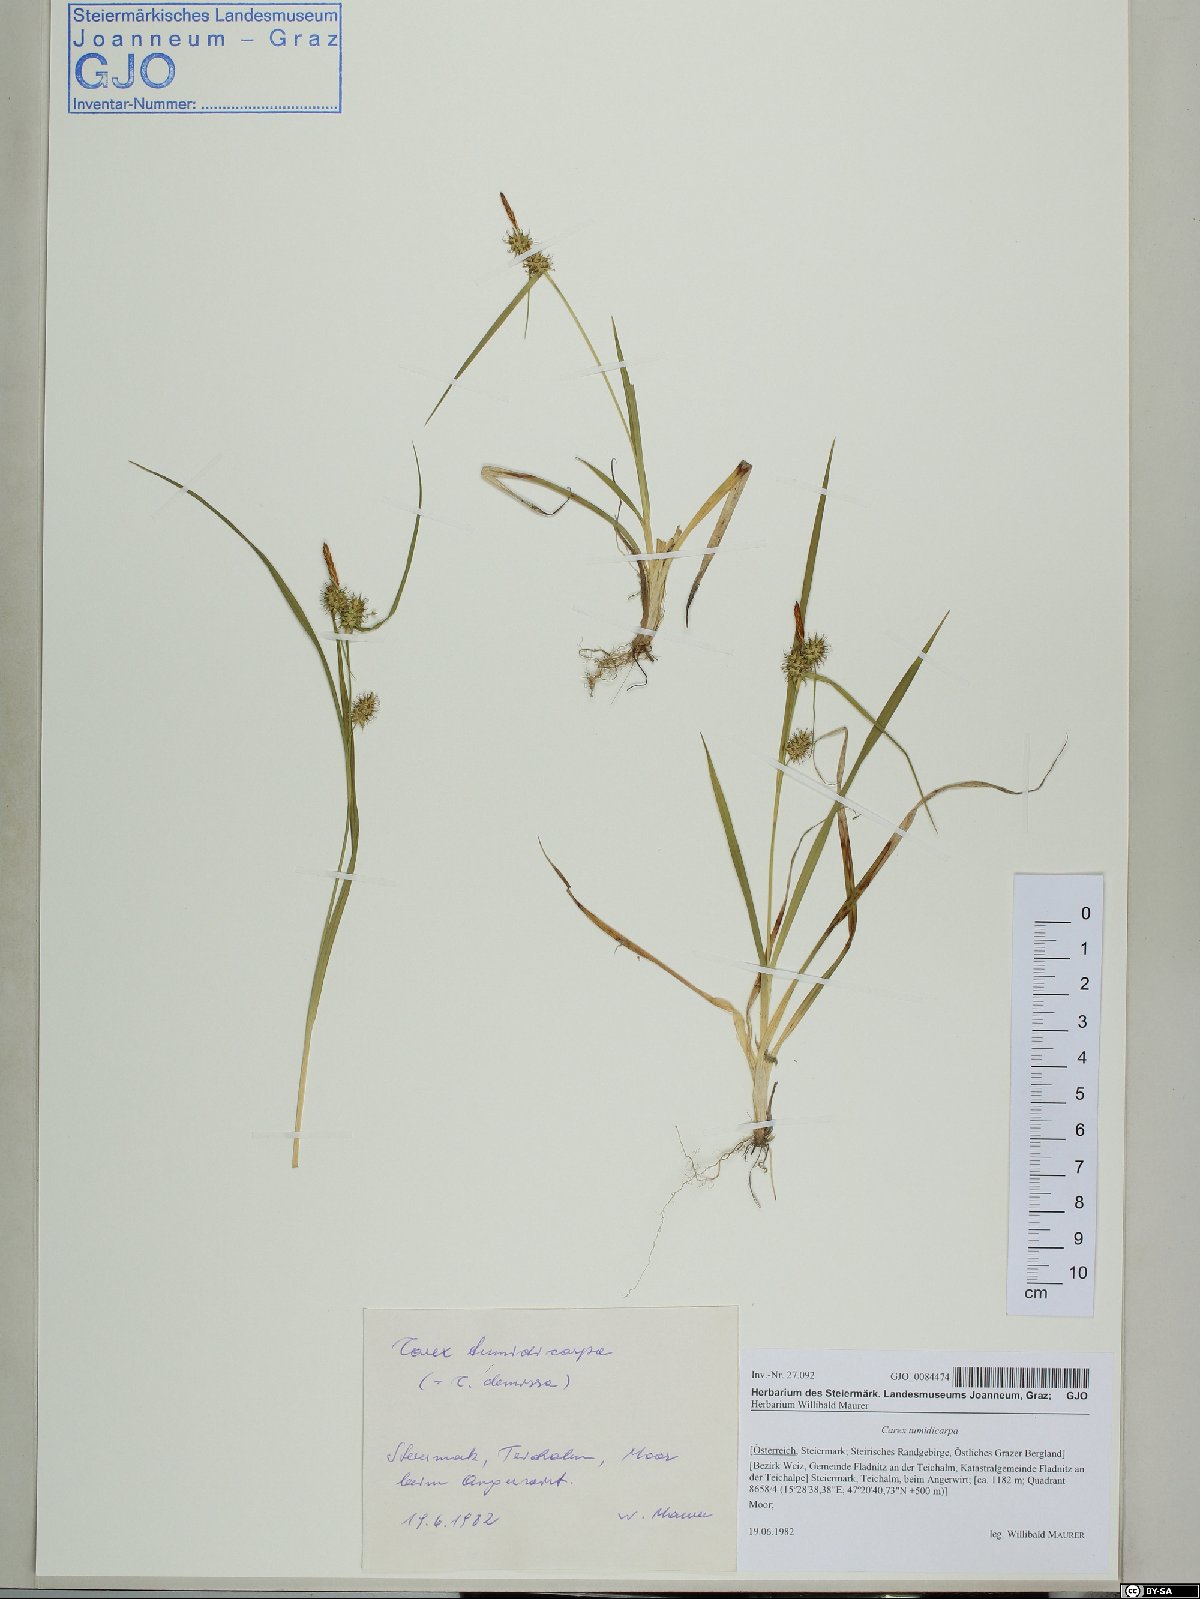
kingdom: Plantae
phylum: Tracheophyta
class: Liliopsida
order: Poales
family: Cyperaceae
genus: Carex
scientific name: Carex demissa
